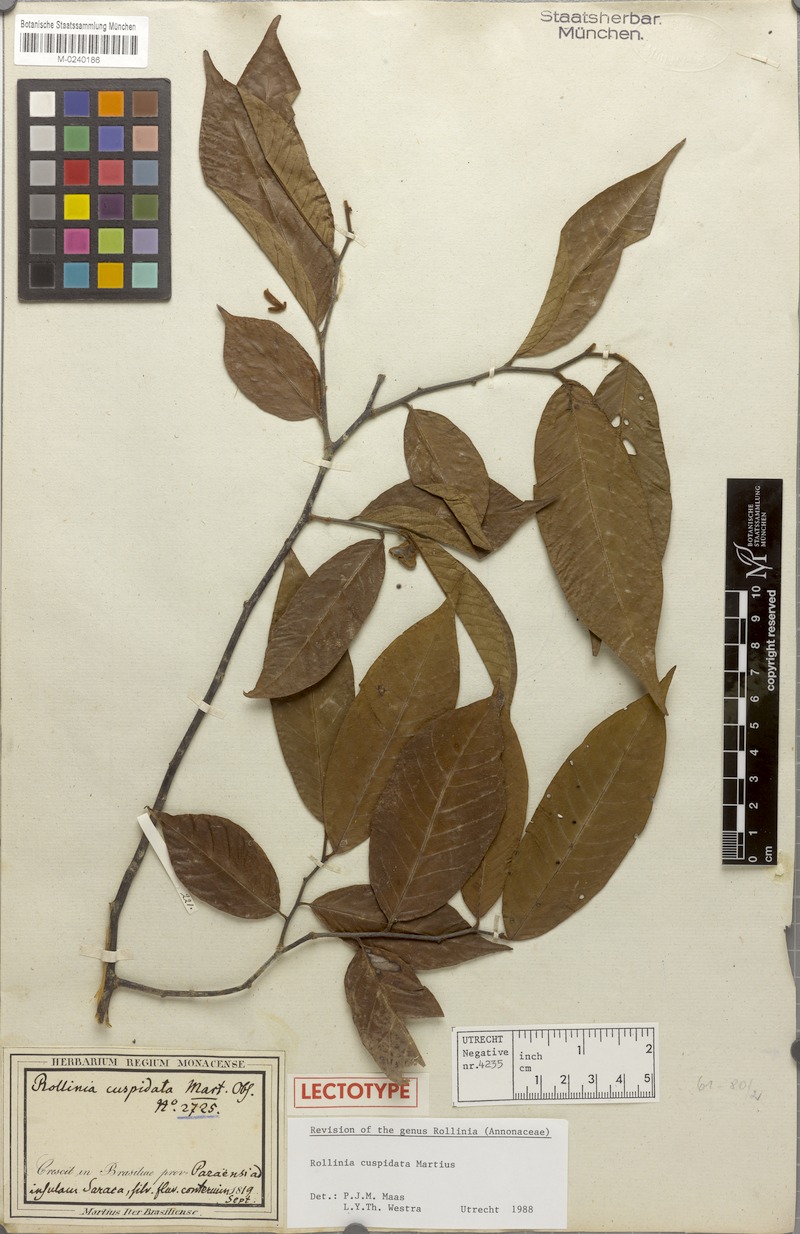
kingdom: Plantae
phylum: Tracheophyta
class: Magnoliopsida
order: Magnoliales
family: Annonaceae
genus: Annona
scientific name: Annona cuspidata
